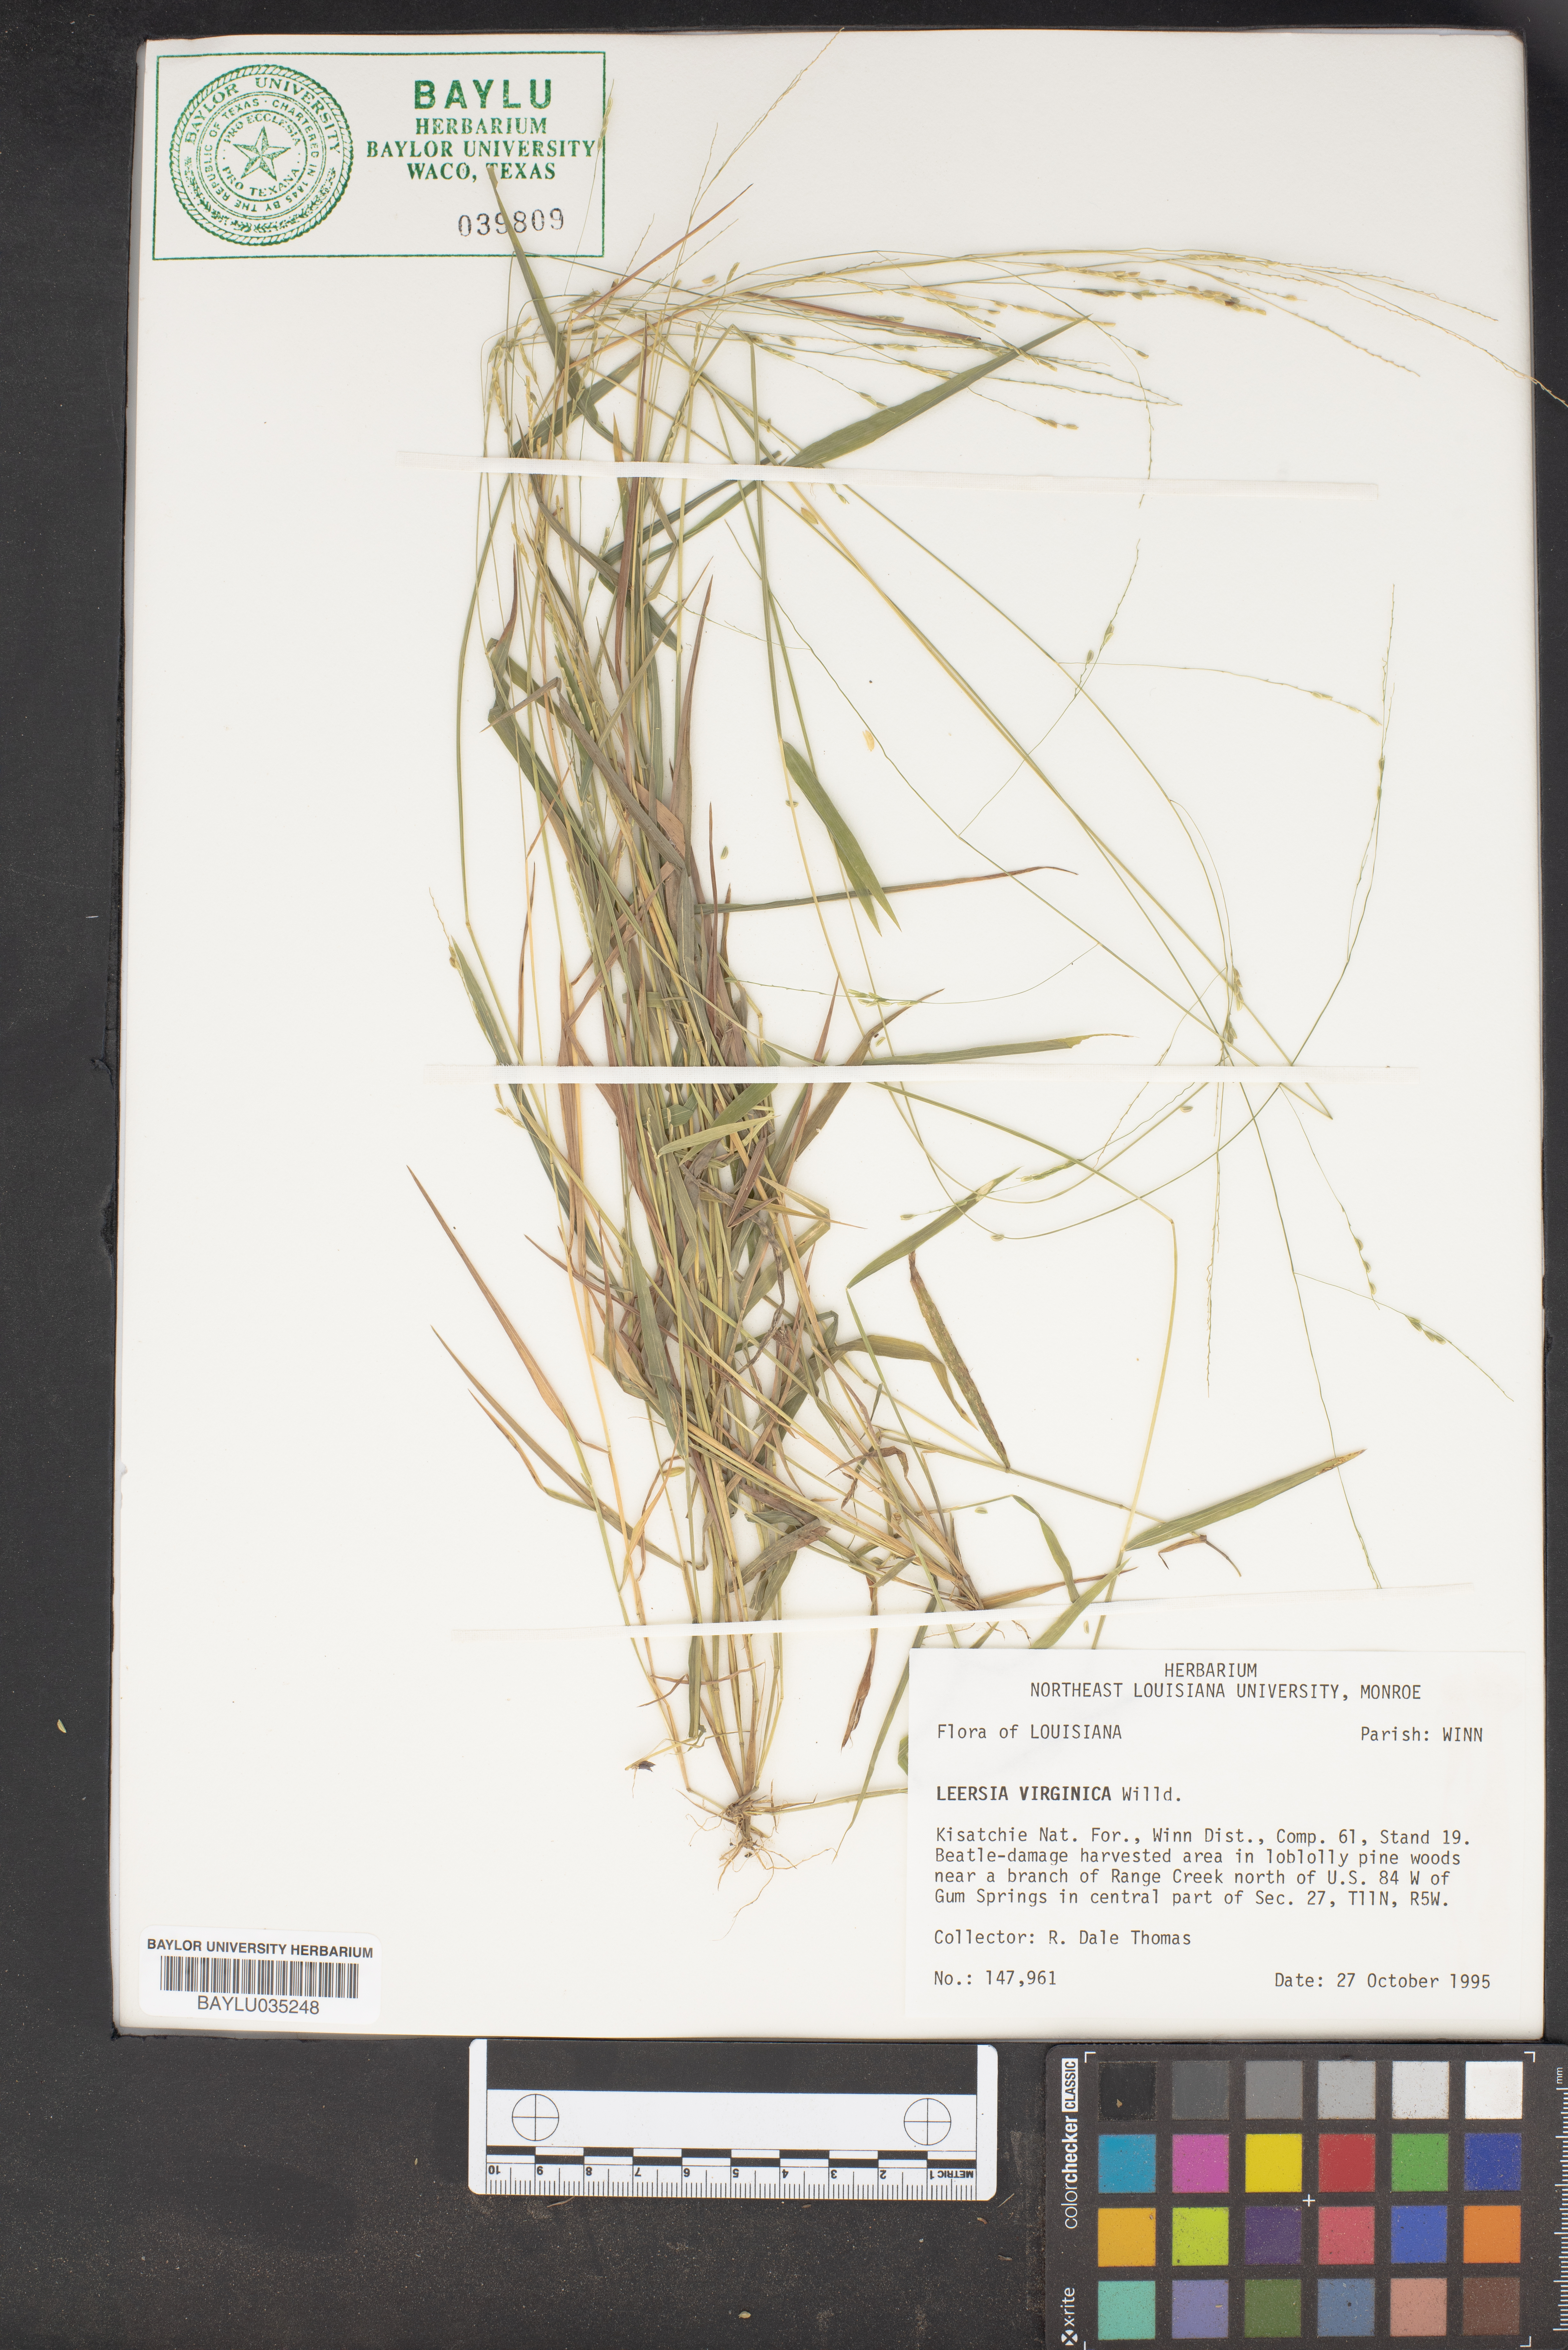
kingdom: Plantae
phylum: Tracheophyta
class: Liliopsida
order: Poales
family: Poaceae
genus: Leersia
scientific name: Leersia virginica
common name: White cutgrass
